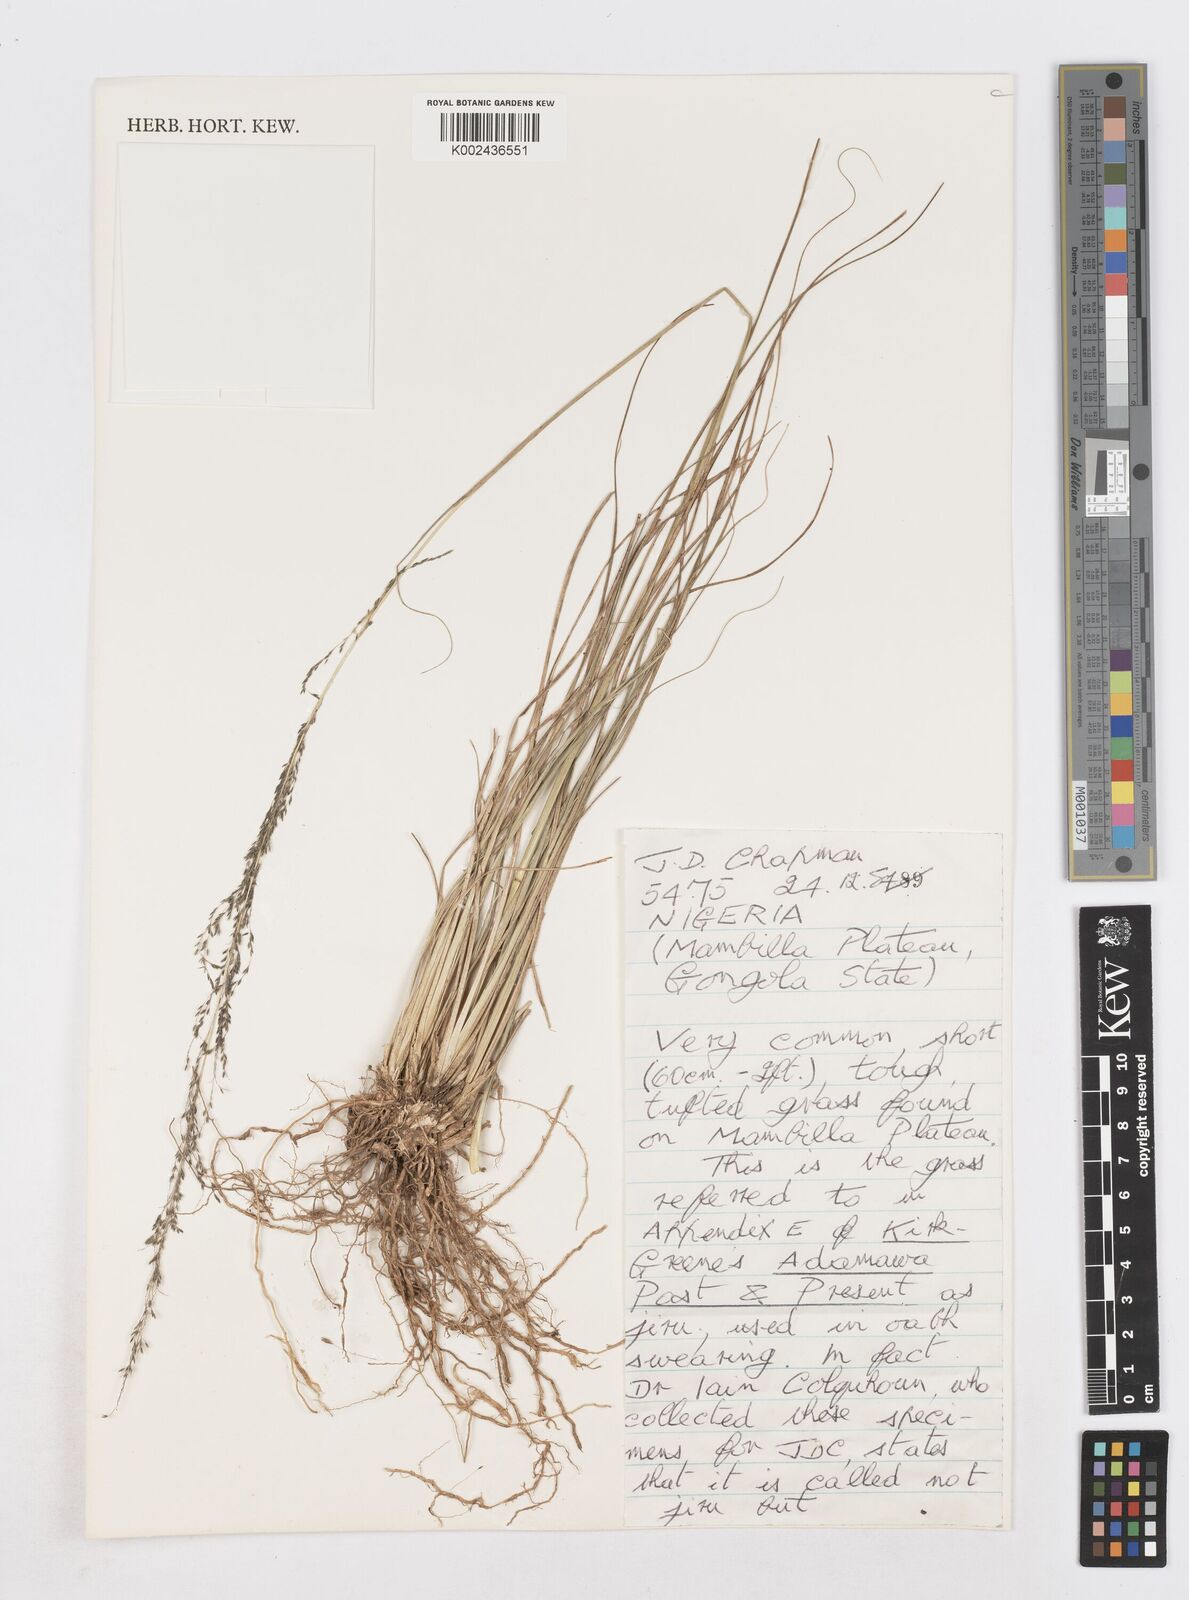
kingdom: Plantae
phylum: Tracheophyta
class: Liliopsida
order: Poales
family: Poaceae
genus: Sporobolus
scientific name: Sporobolus
